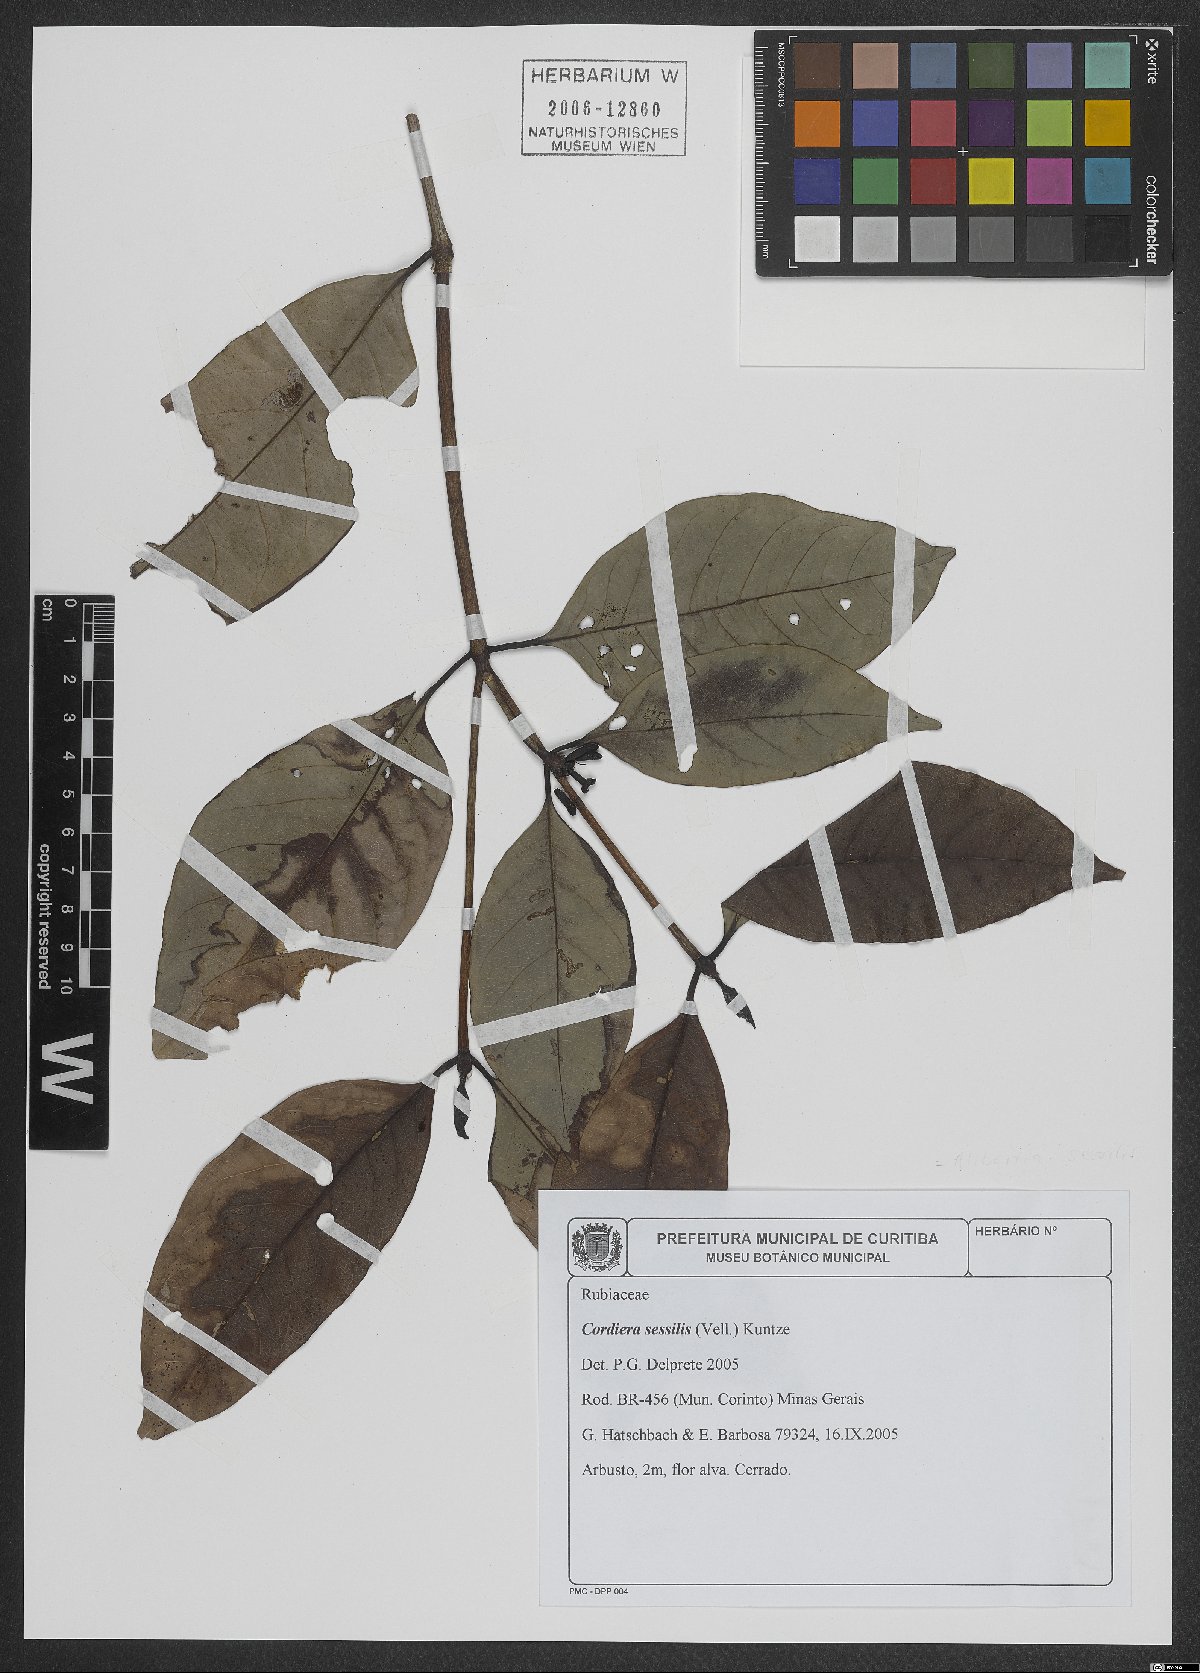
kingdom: Plantae
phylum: Tracheophyta
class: Magnoliopsida
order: Gentianales
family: Rubiaceae
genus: Cordiera
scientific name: Cordiera sessilis
